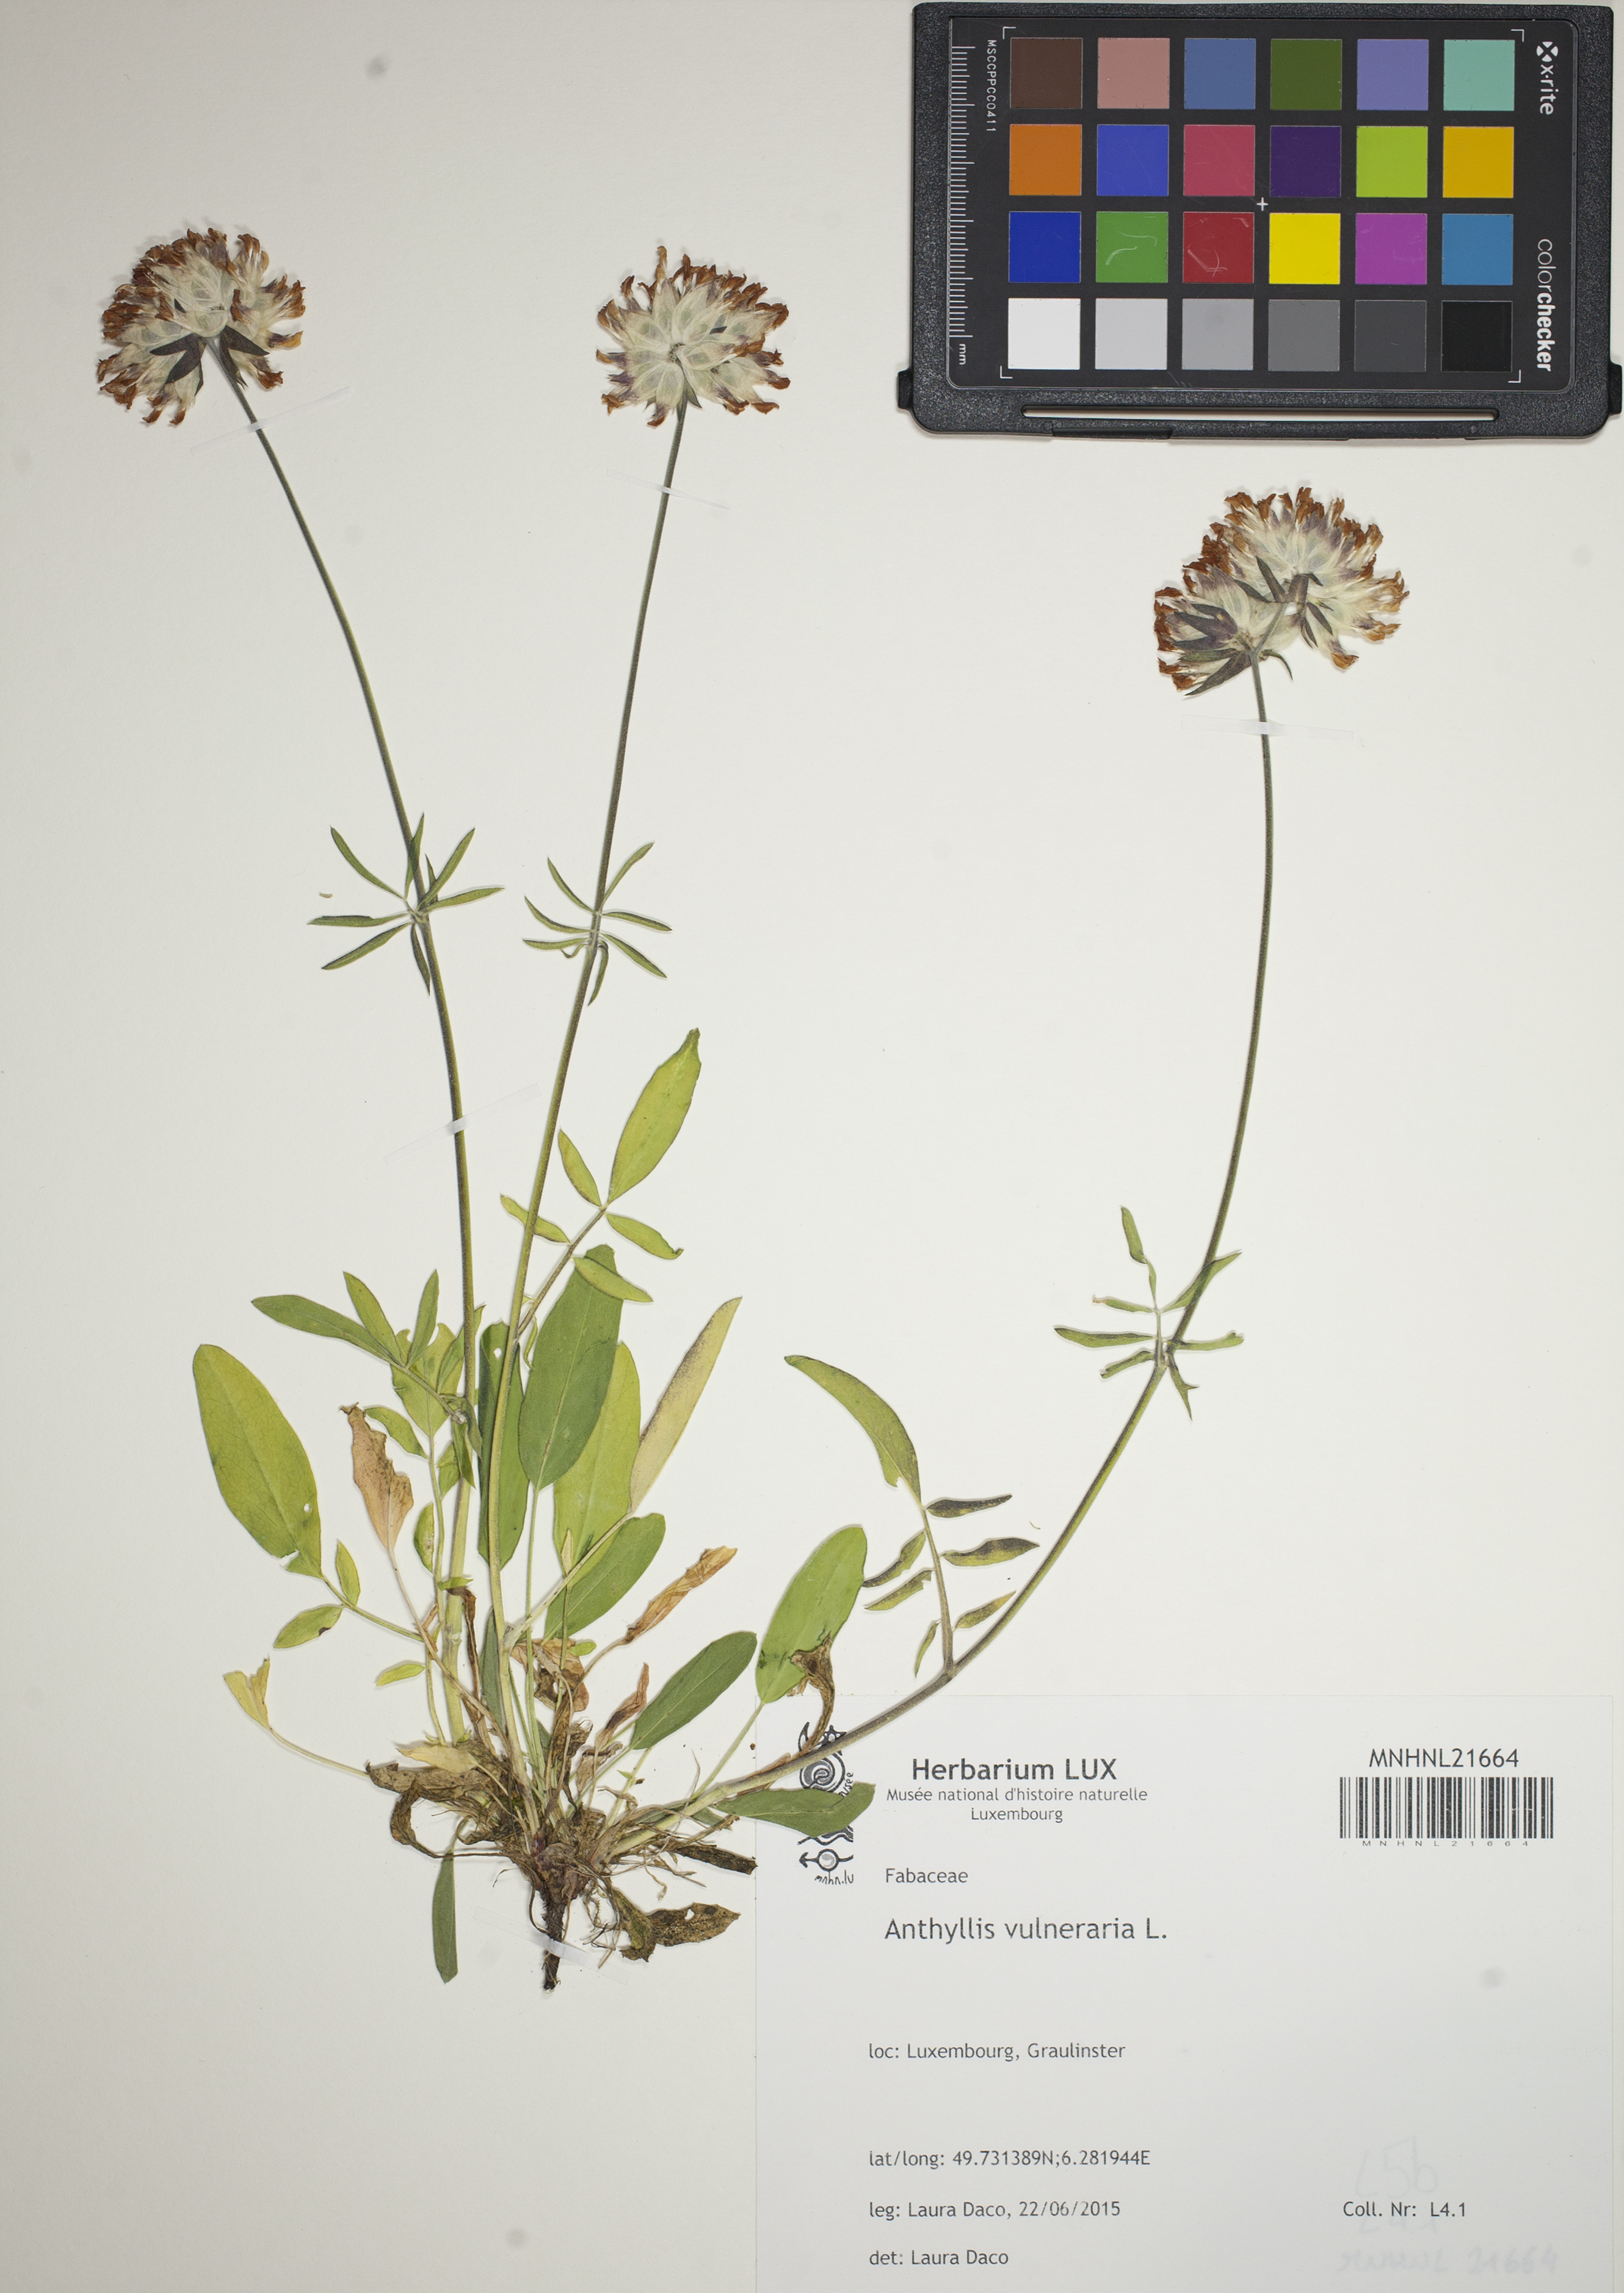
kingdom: Plantae
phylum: Tracheophyta
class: Magnoliopsida
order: Fabales
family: Fabaceae
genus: Anthyllis
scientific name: Anthyllis vulneraria
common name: Kidney vetch
